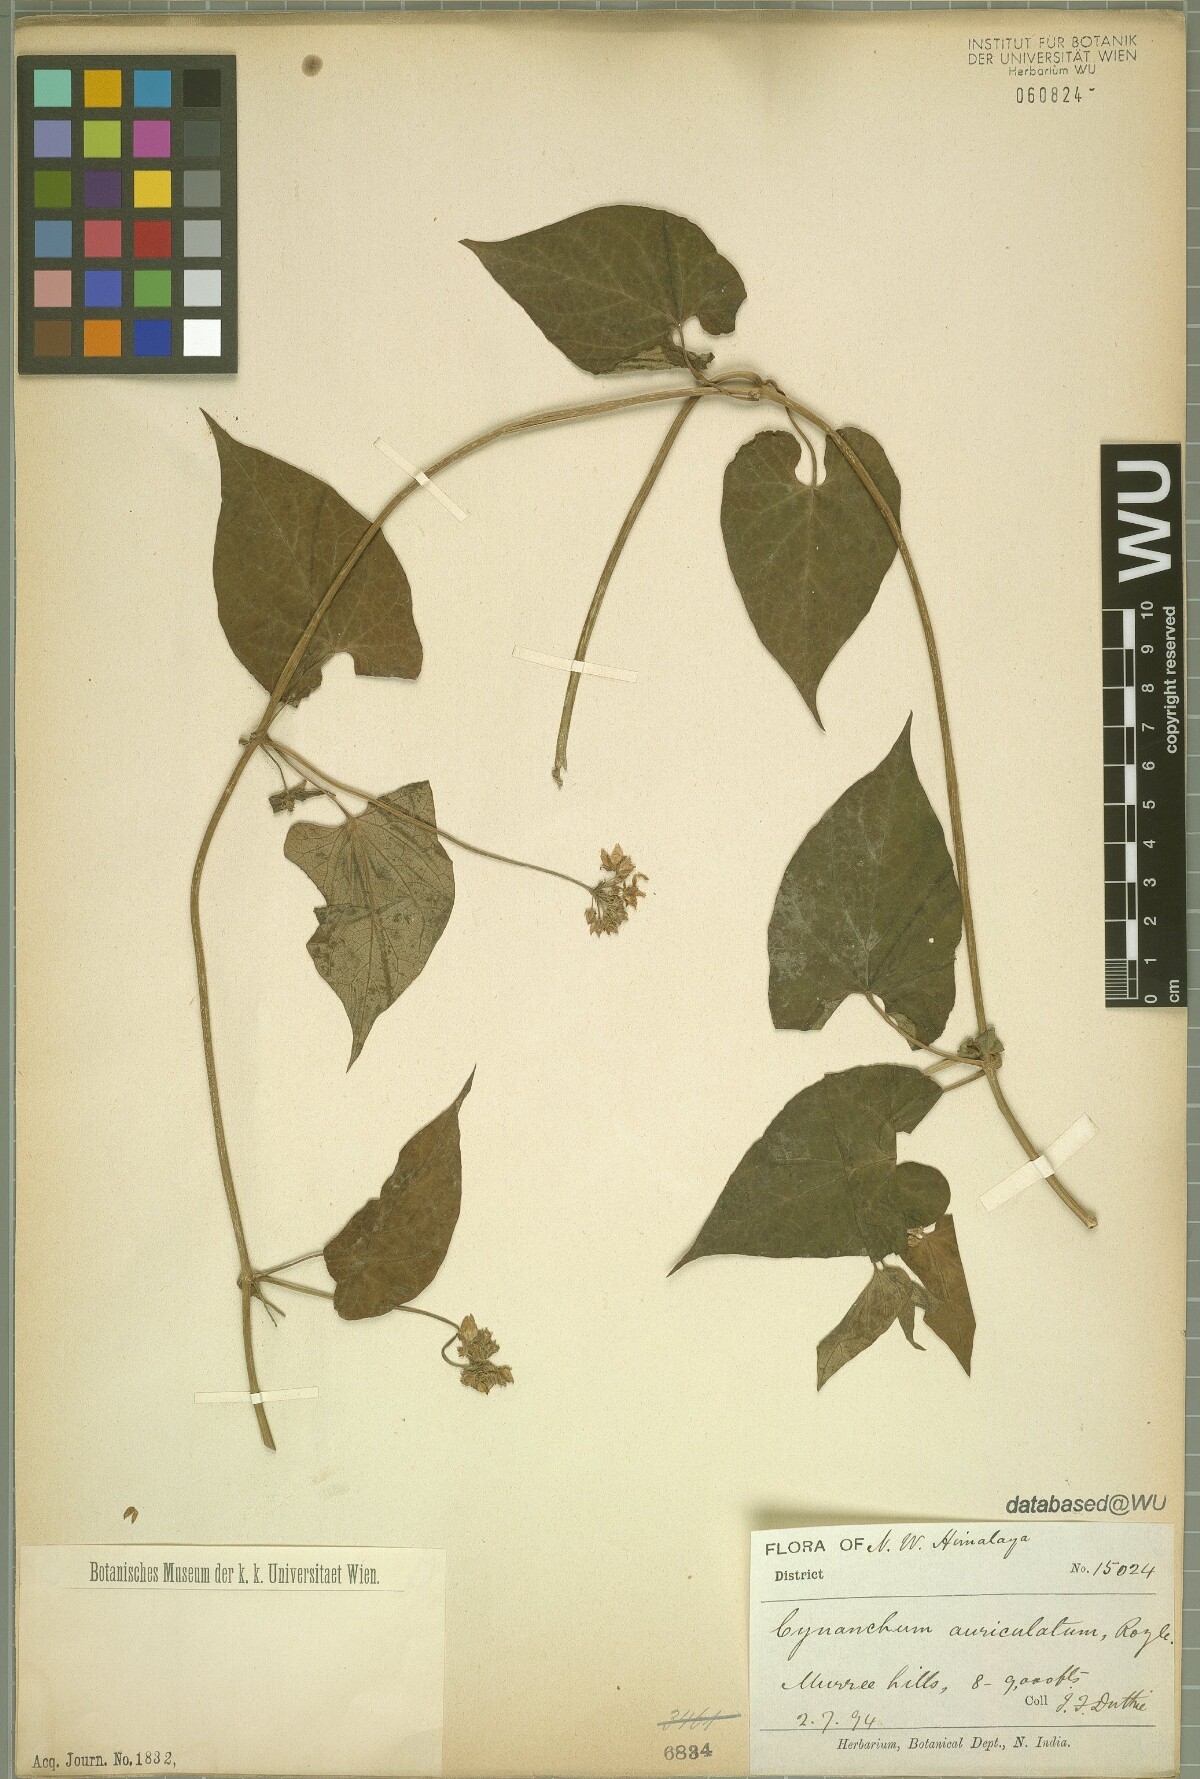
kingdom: Plantae
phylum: Tracheophyta
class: Magnoliopsida
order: Sapindales
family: Burseraceae
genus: Canarium
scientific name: Canarium zeylanicum
